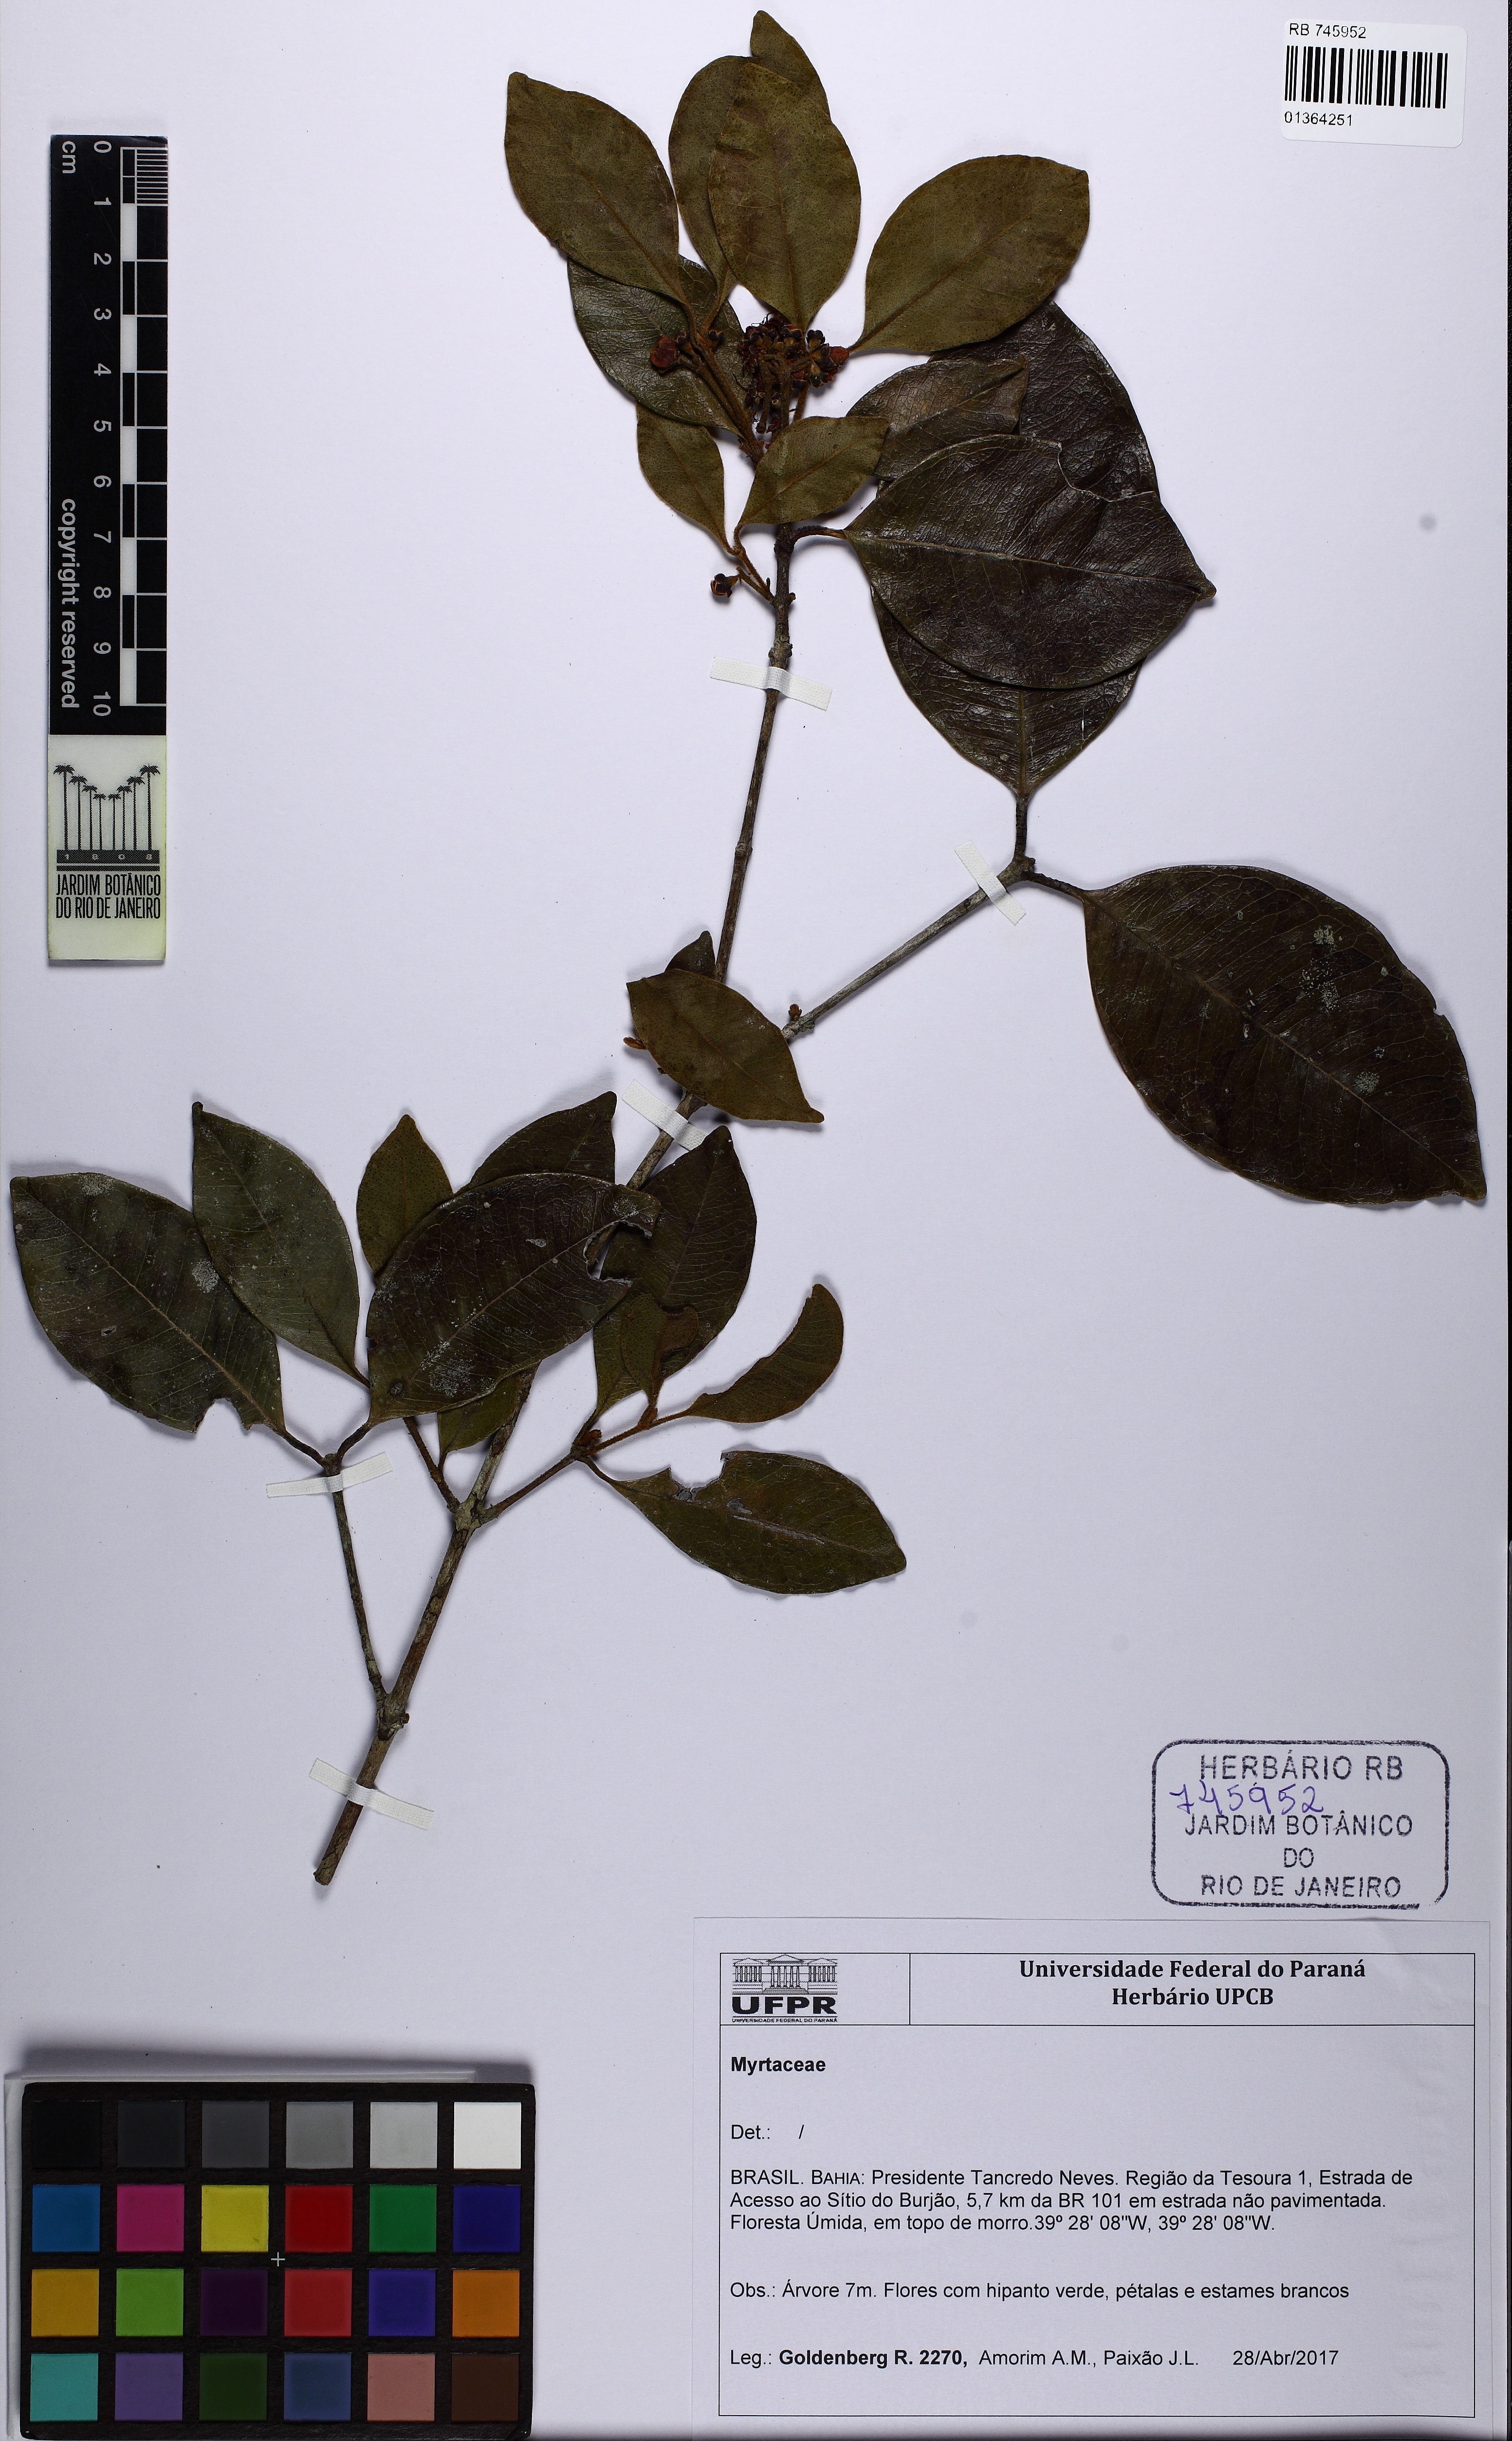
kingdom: Plantae
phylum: Tracheophyta
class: Magnoliopsida
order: Myrtales
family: Myrtaceae
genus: Myrcia
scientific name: Myrcia stigmatosa
